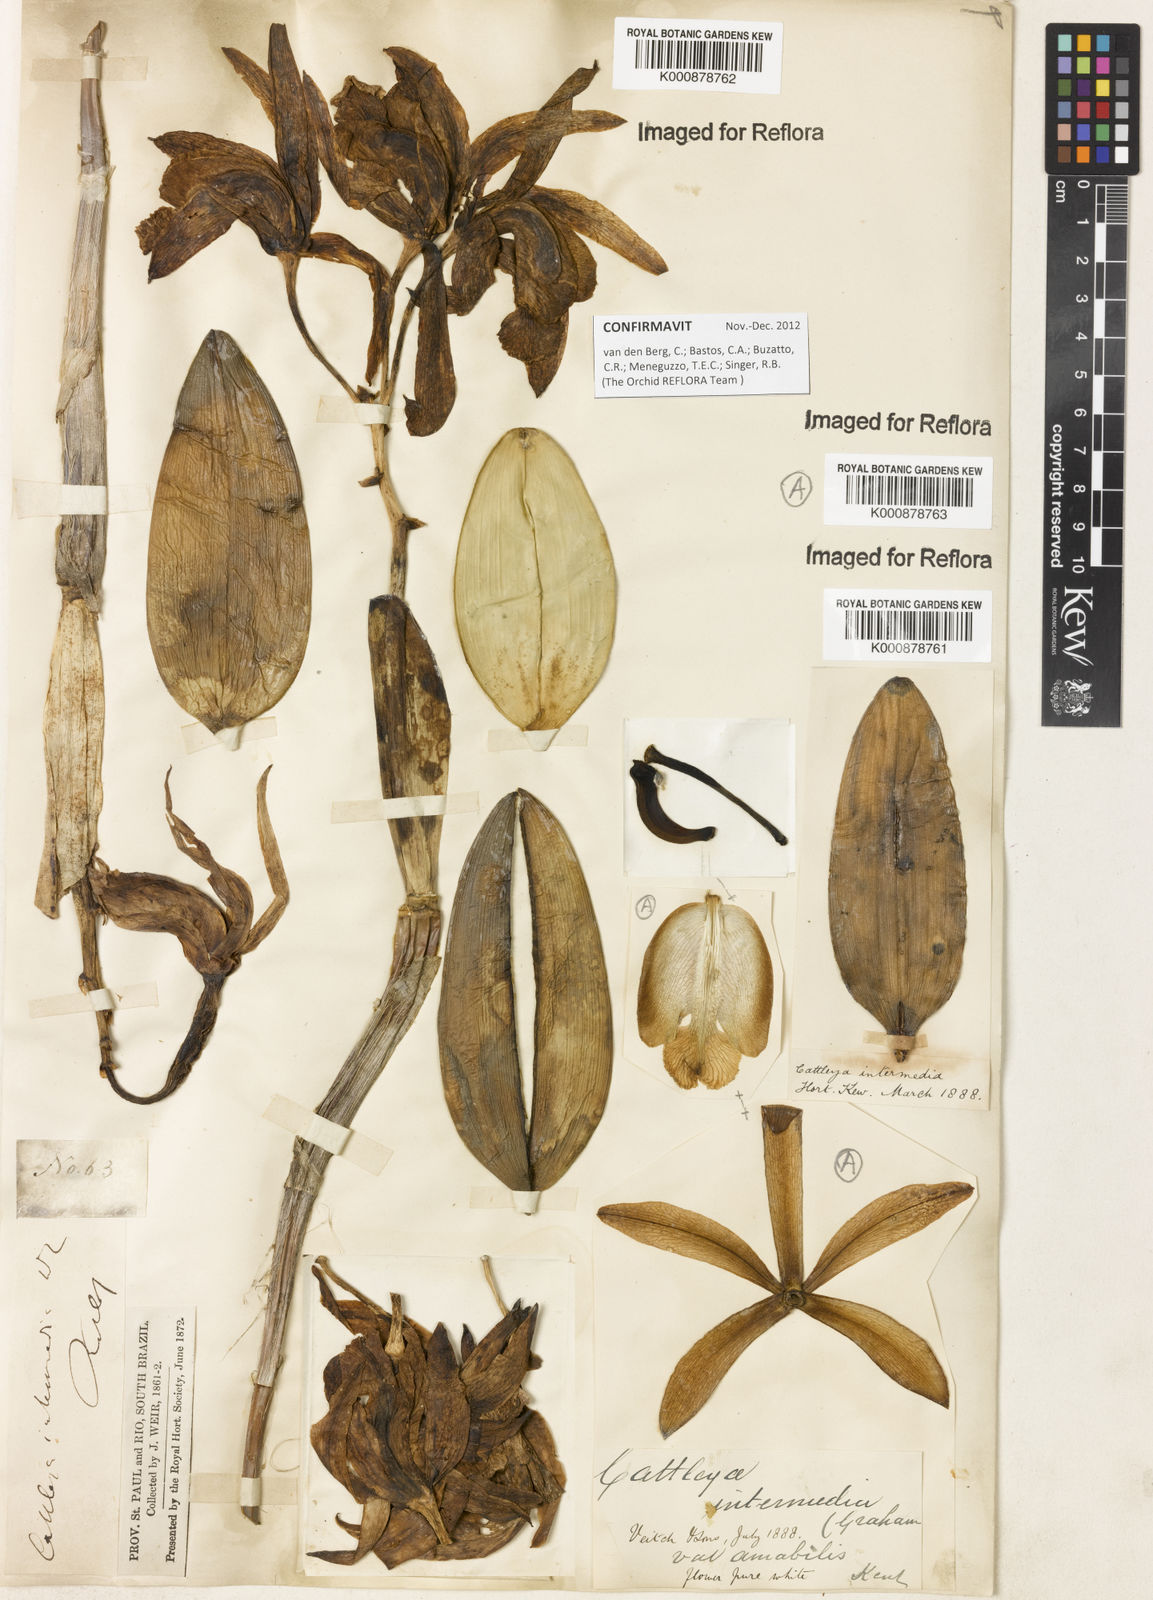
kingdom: Plantae
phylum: Tracheophyta
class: Liliopsida
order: Asparagales
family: Orchidaceae
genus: Cattleya
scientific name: Cattleya intermedia
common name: Intermediate cattleya
